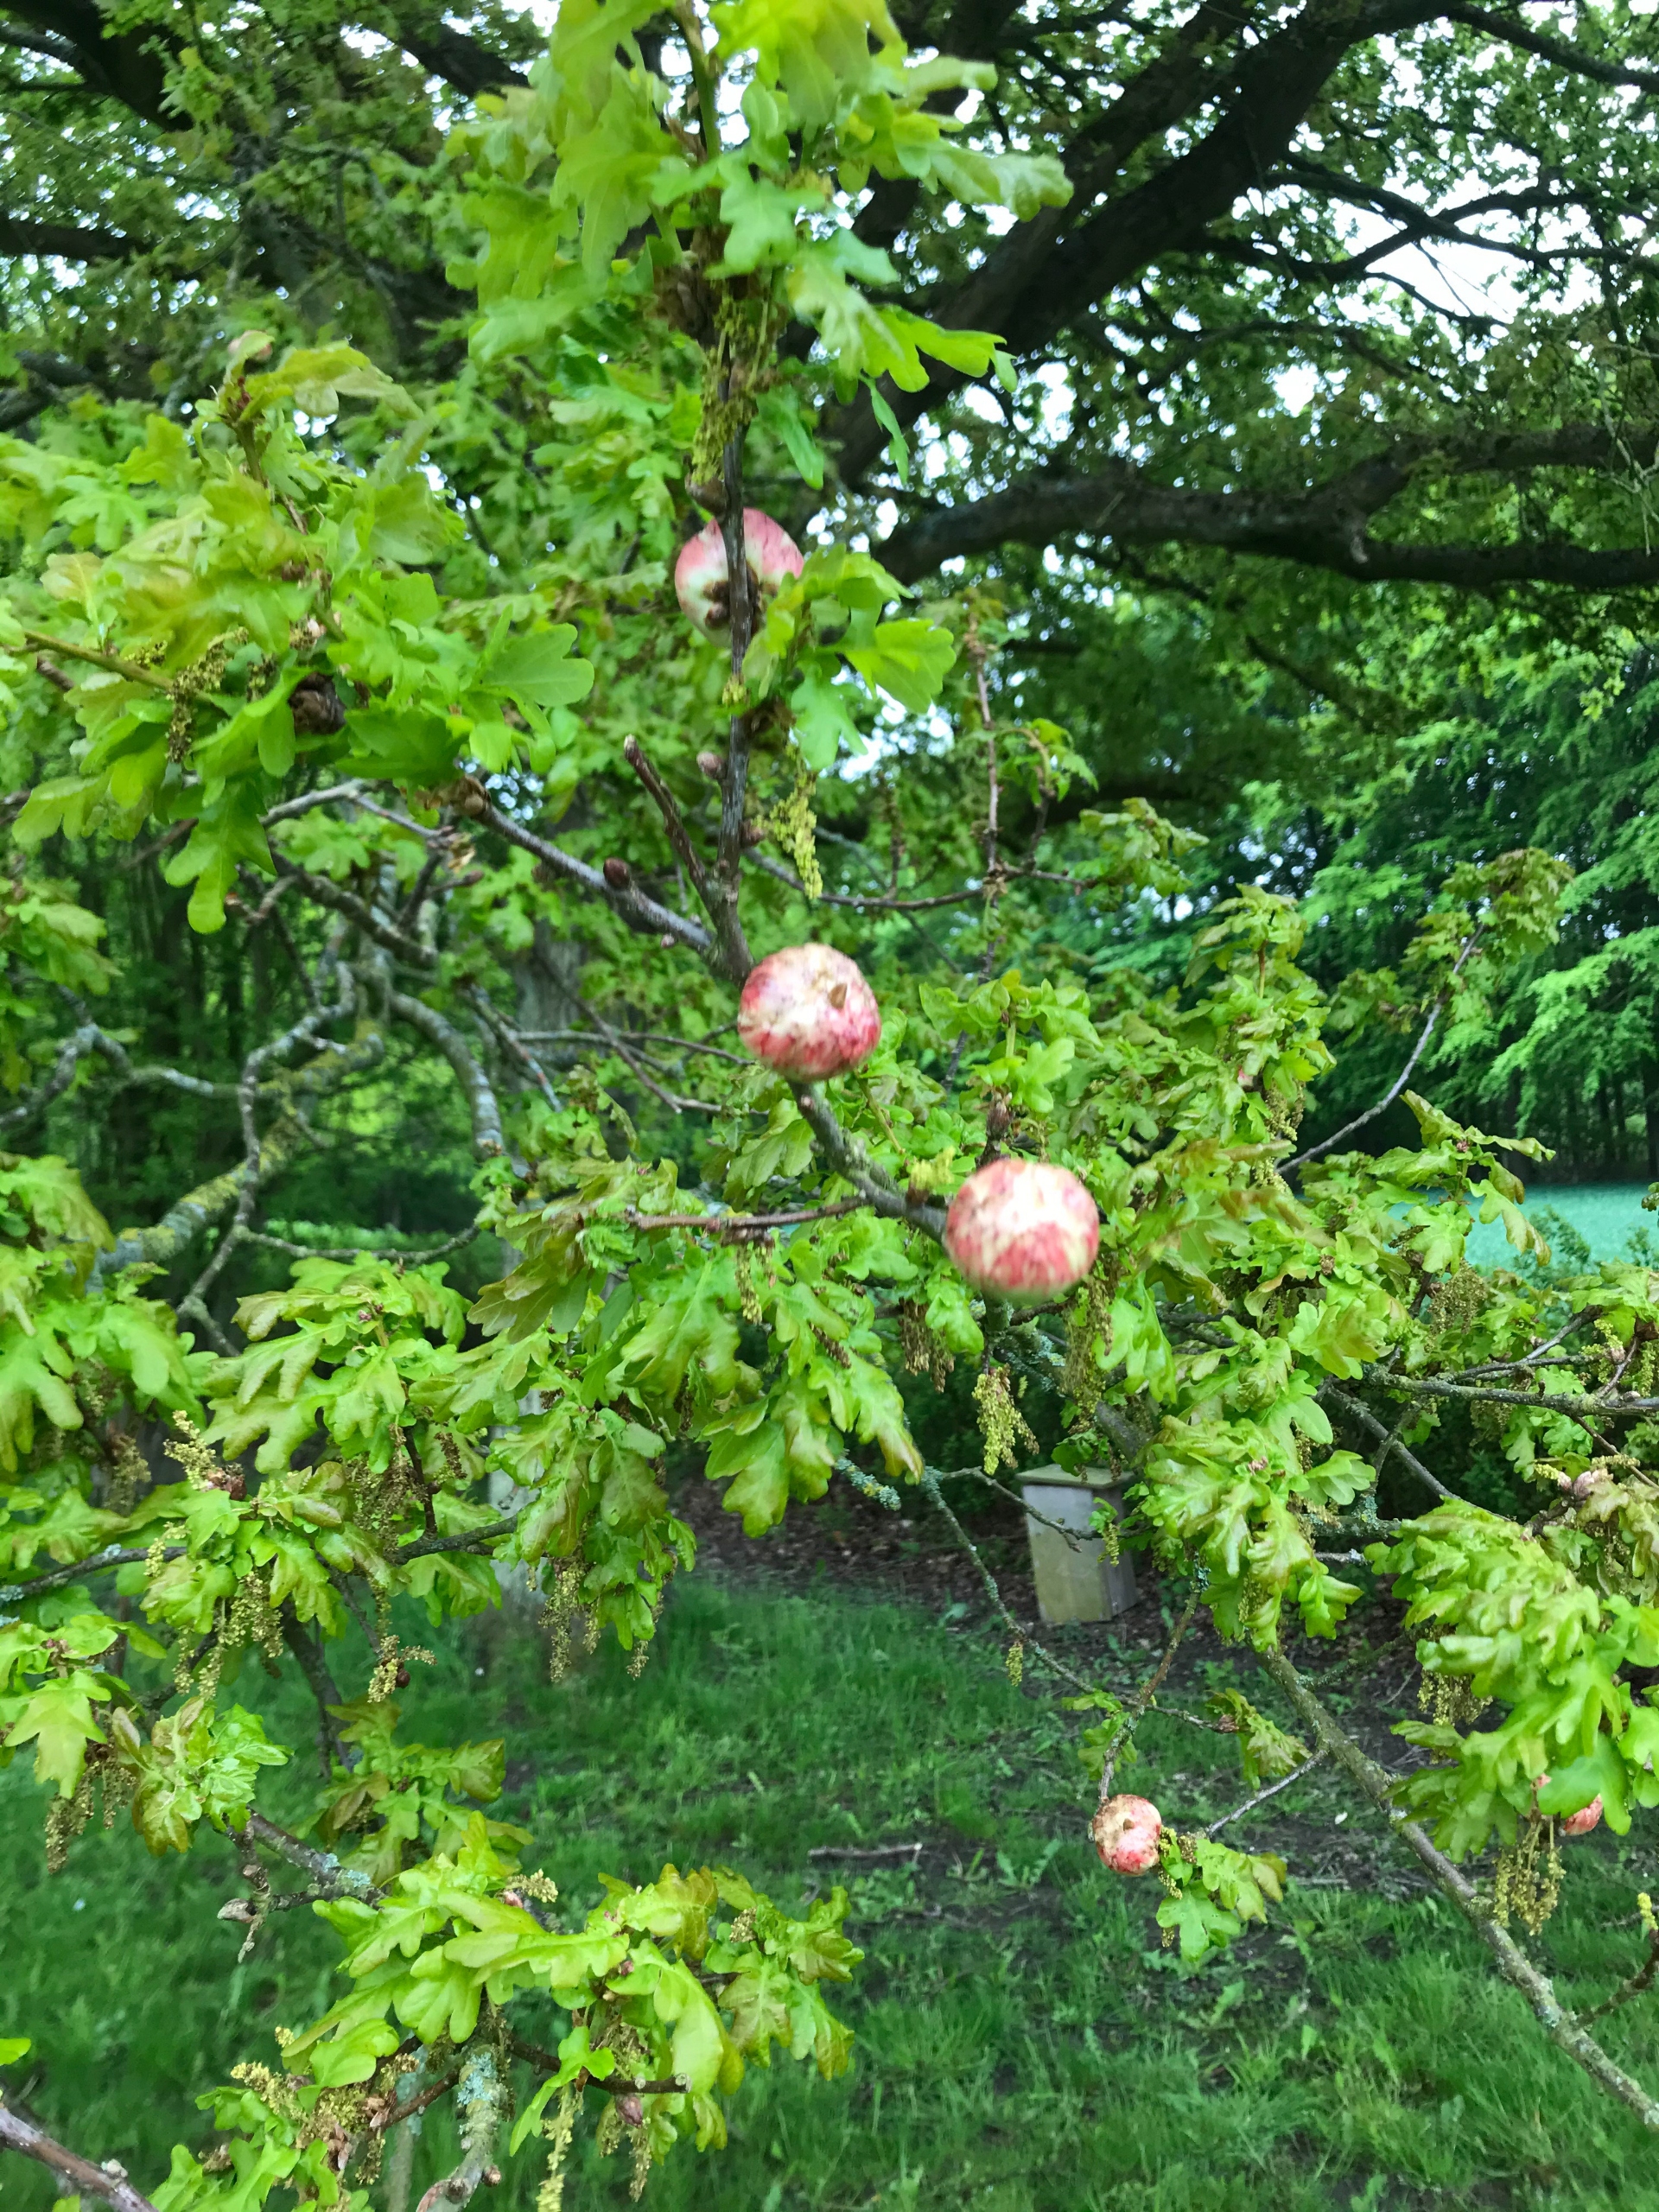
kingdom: Animalia
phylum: Arthropoda
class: Insecta
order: Hymenoptera
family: Cynipidae
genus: Biorhiza
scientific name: Biorhiza pallida
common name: Ege-kartoffelgalhveps
